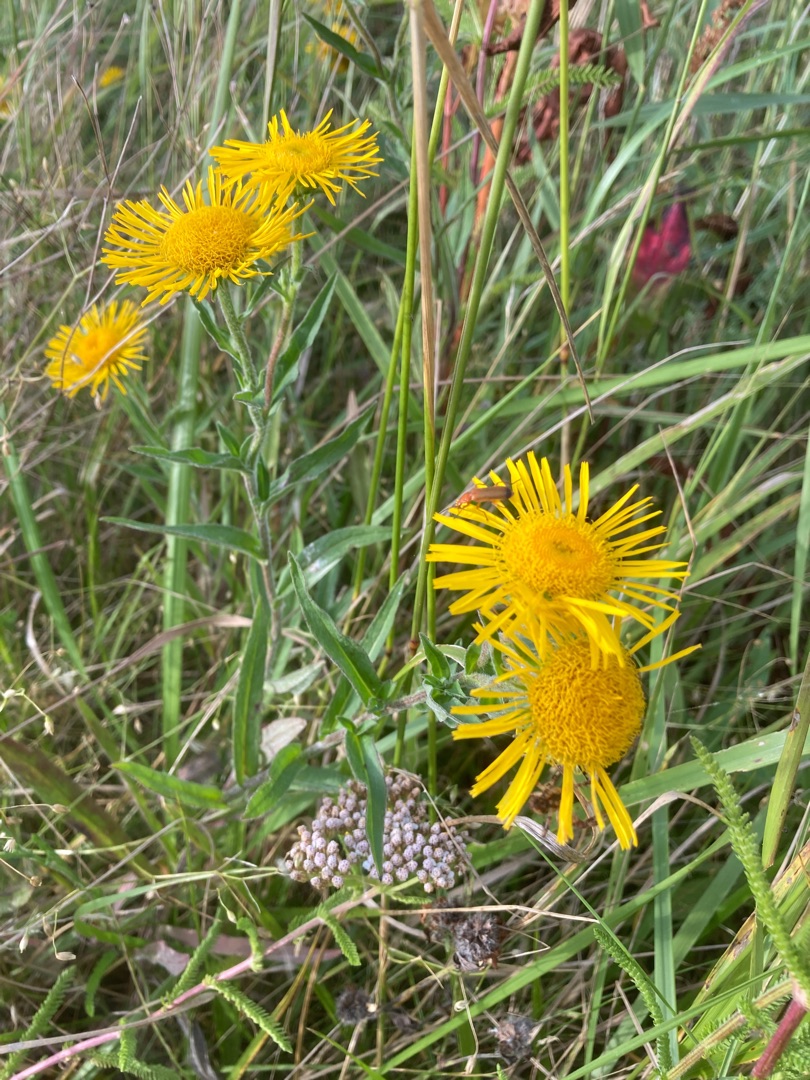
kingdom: Plantae
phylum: Tracheophyta
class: Magnoliopsida
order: Asterales
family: Asteraceae
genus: Pentanema
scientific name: Pentanema britannicum
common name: Soløje-alant
